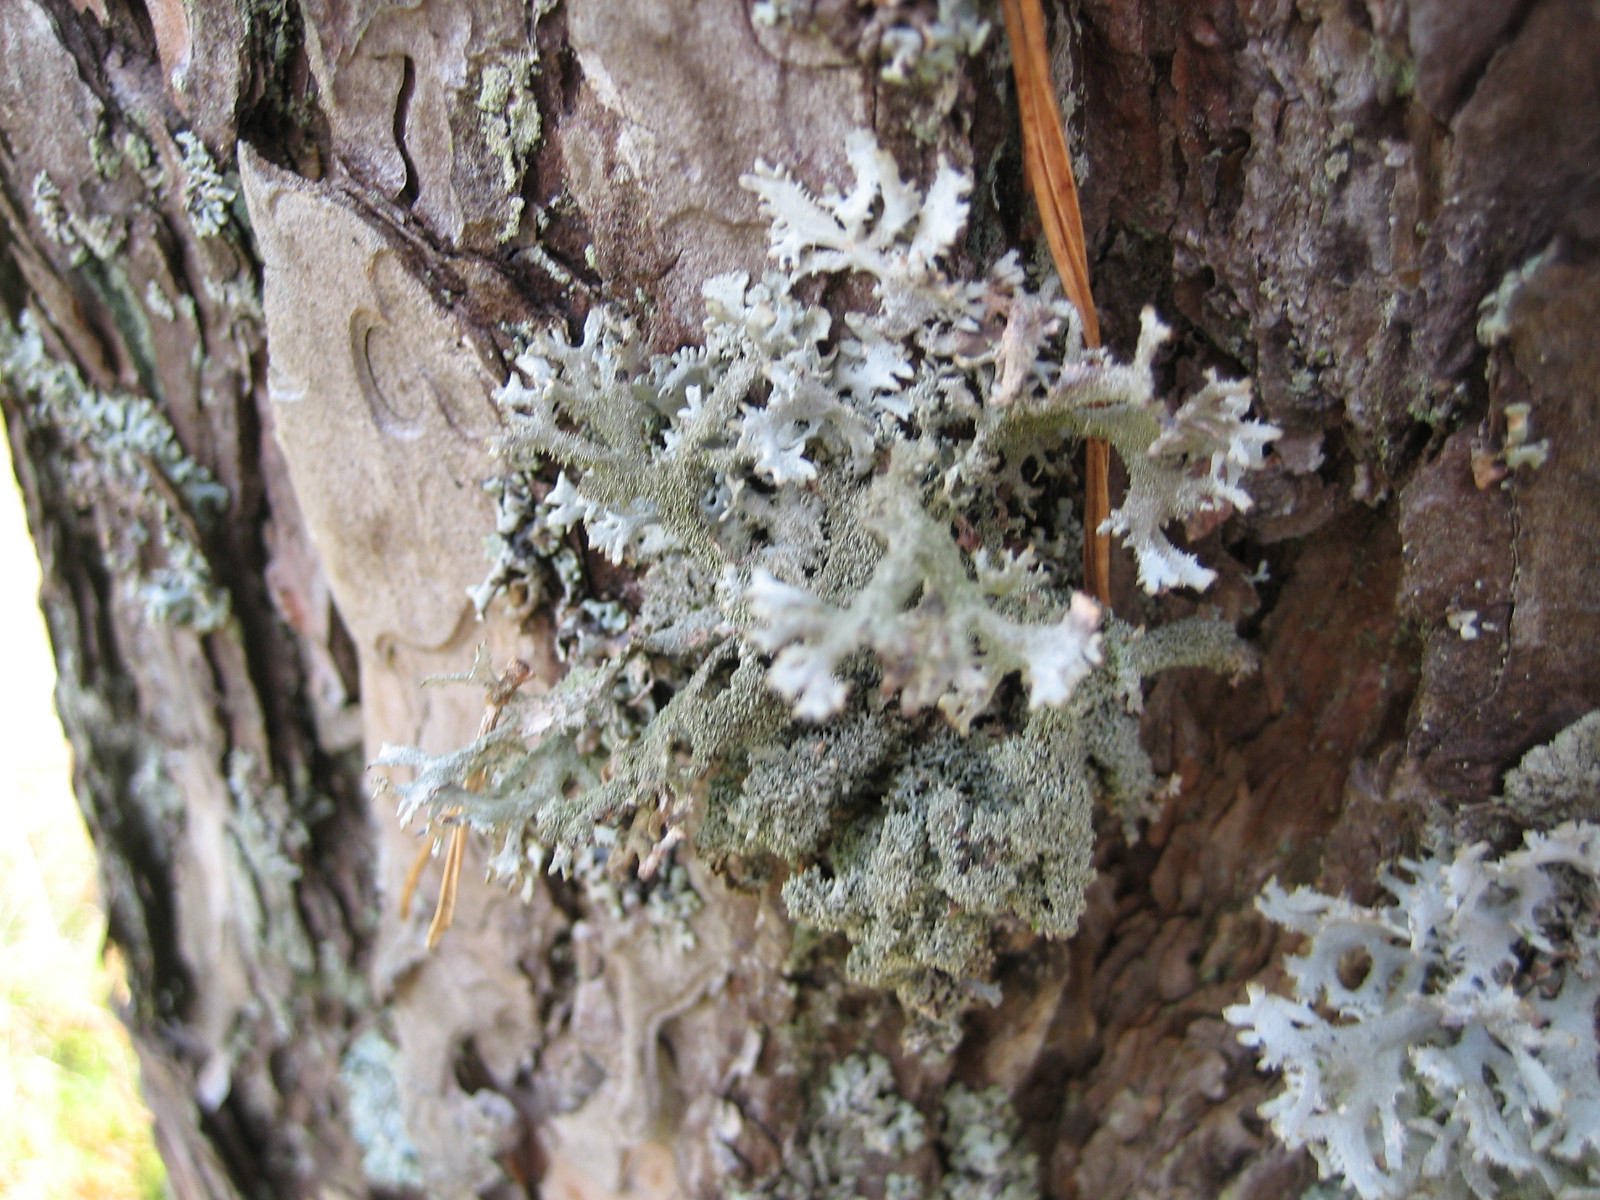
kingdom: Fungi
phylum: Ascomycota
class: Lecanoromycetes
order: Lecanorales
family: Parmeliaceae
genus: Pseudevernia
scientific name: Pseudevernia furfuracea
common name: grå fyrrelav
